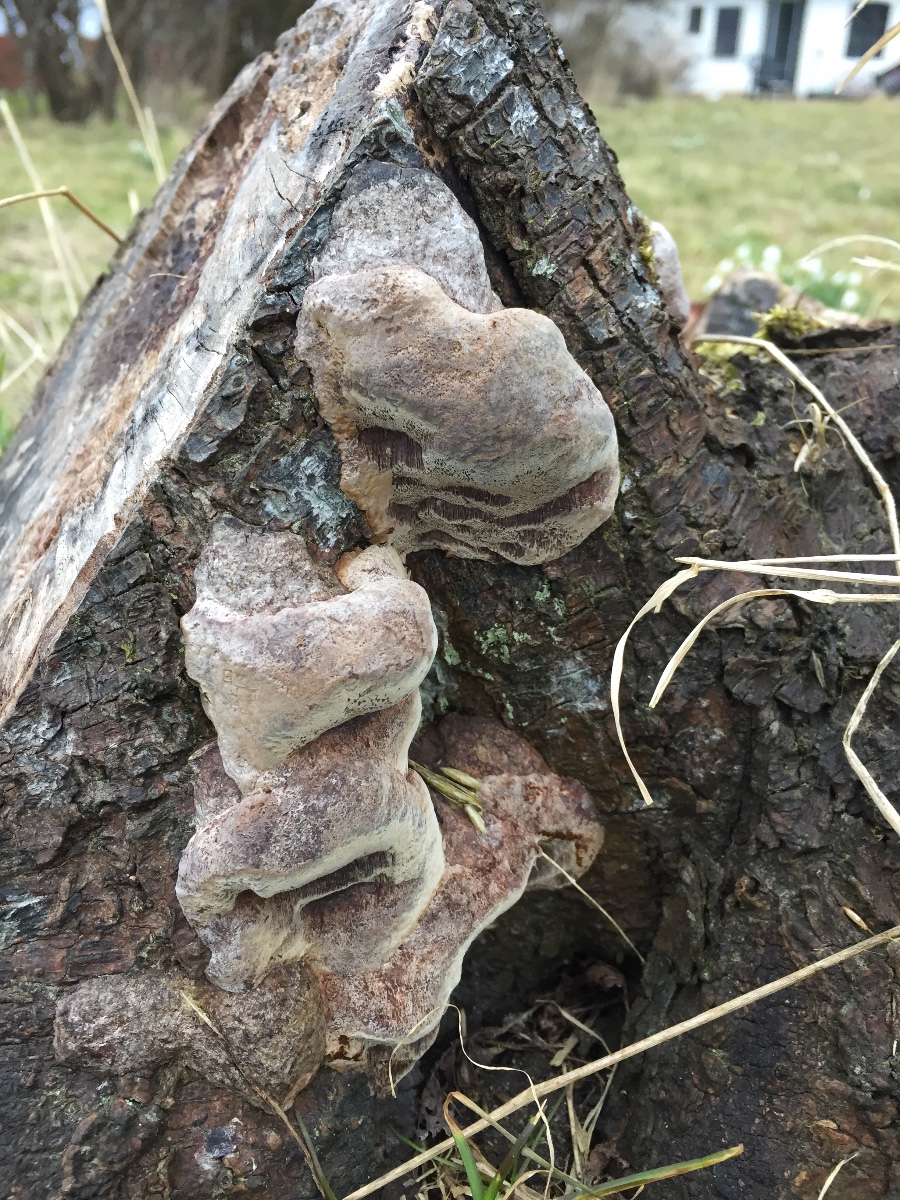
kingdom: Fungi
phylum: Basidiomycota
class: Agaricomycetes
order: Hymenochaetales
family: Hymenochaetaceae
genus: Phellinus
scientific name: Phellinus pomaceus
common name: blomme-ildporesvamp
